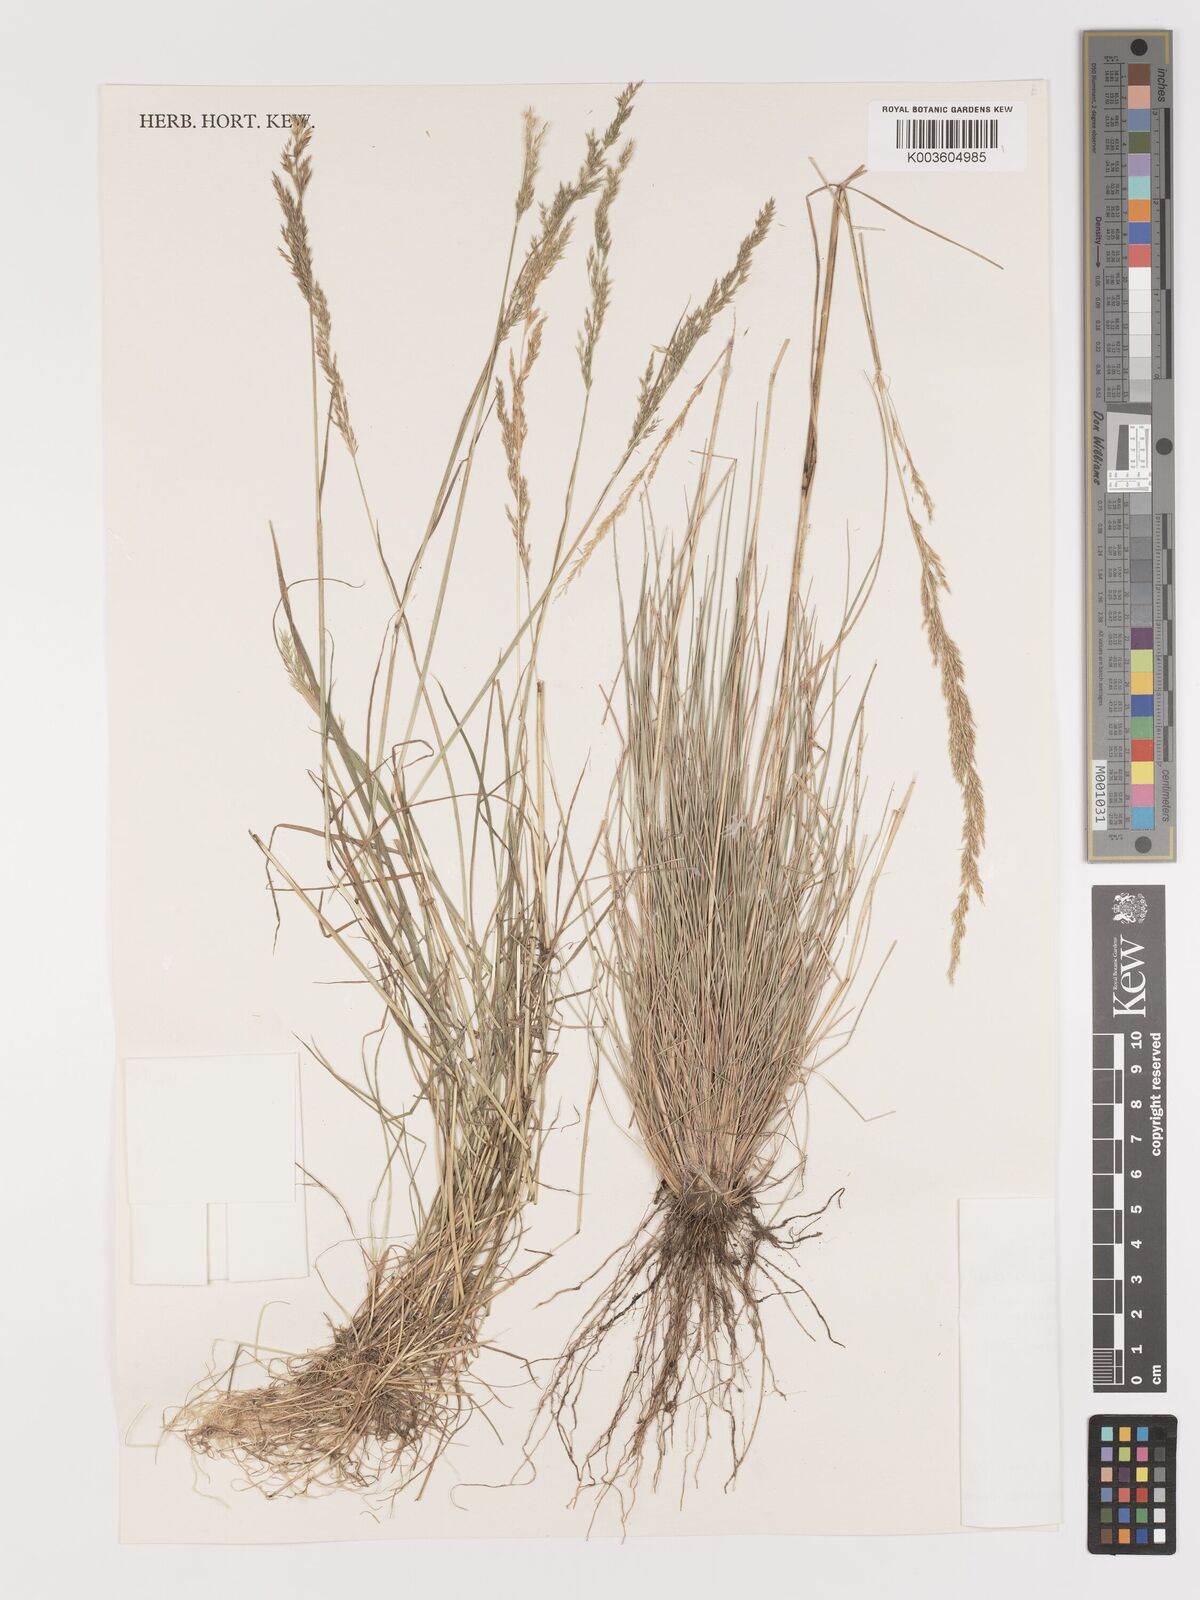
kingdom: Plantae
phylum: Tracheophyta
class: Liliopsida
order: Poales
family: Poaceae
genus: Agrostis
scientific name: Agrostis tolucensis
